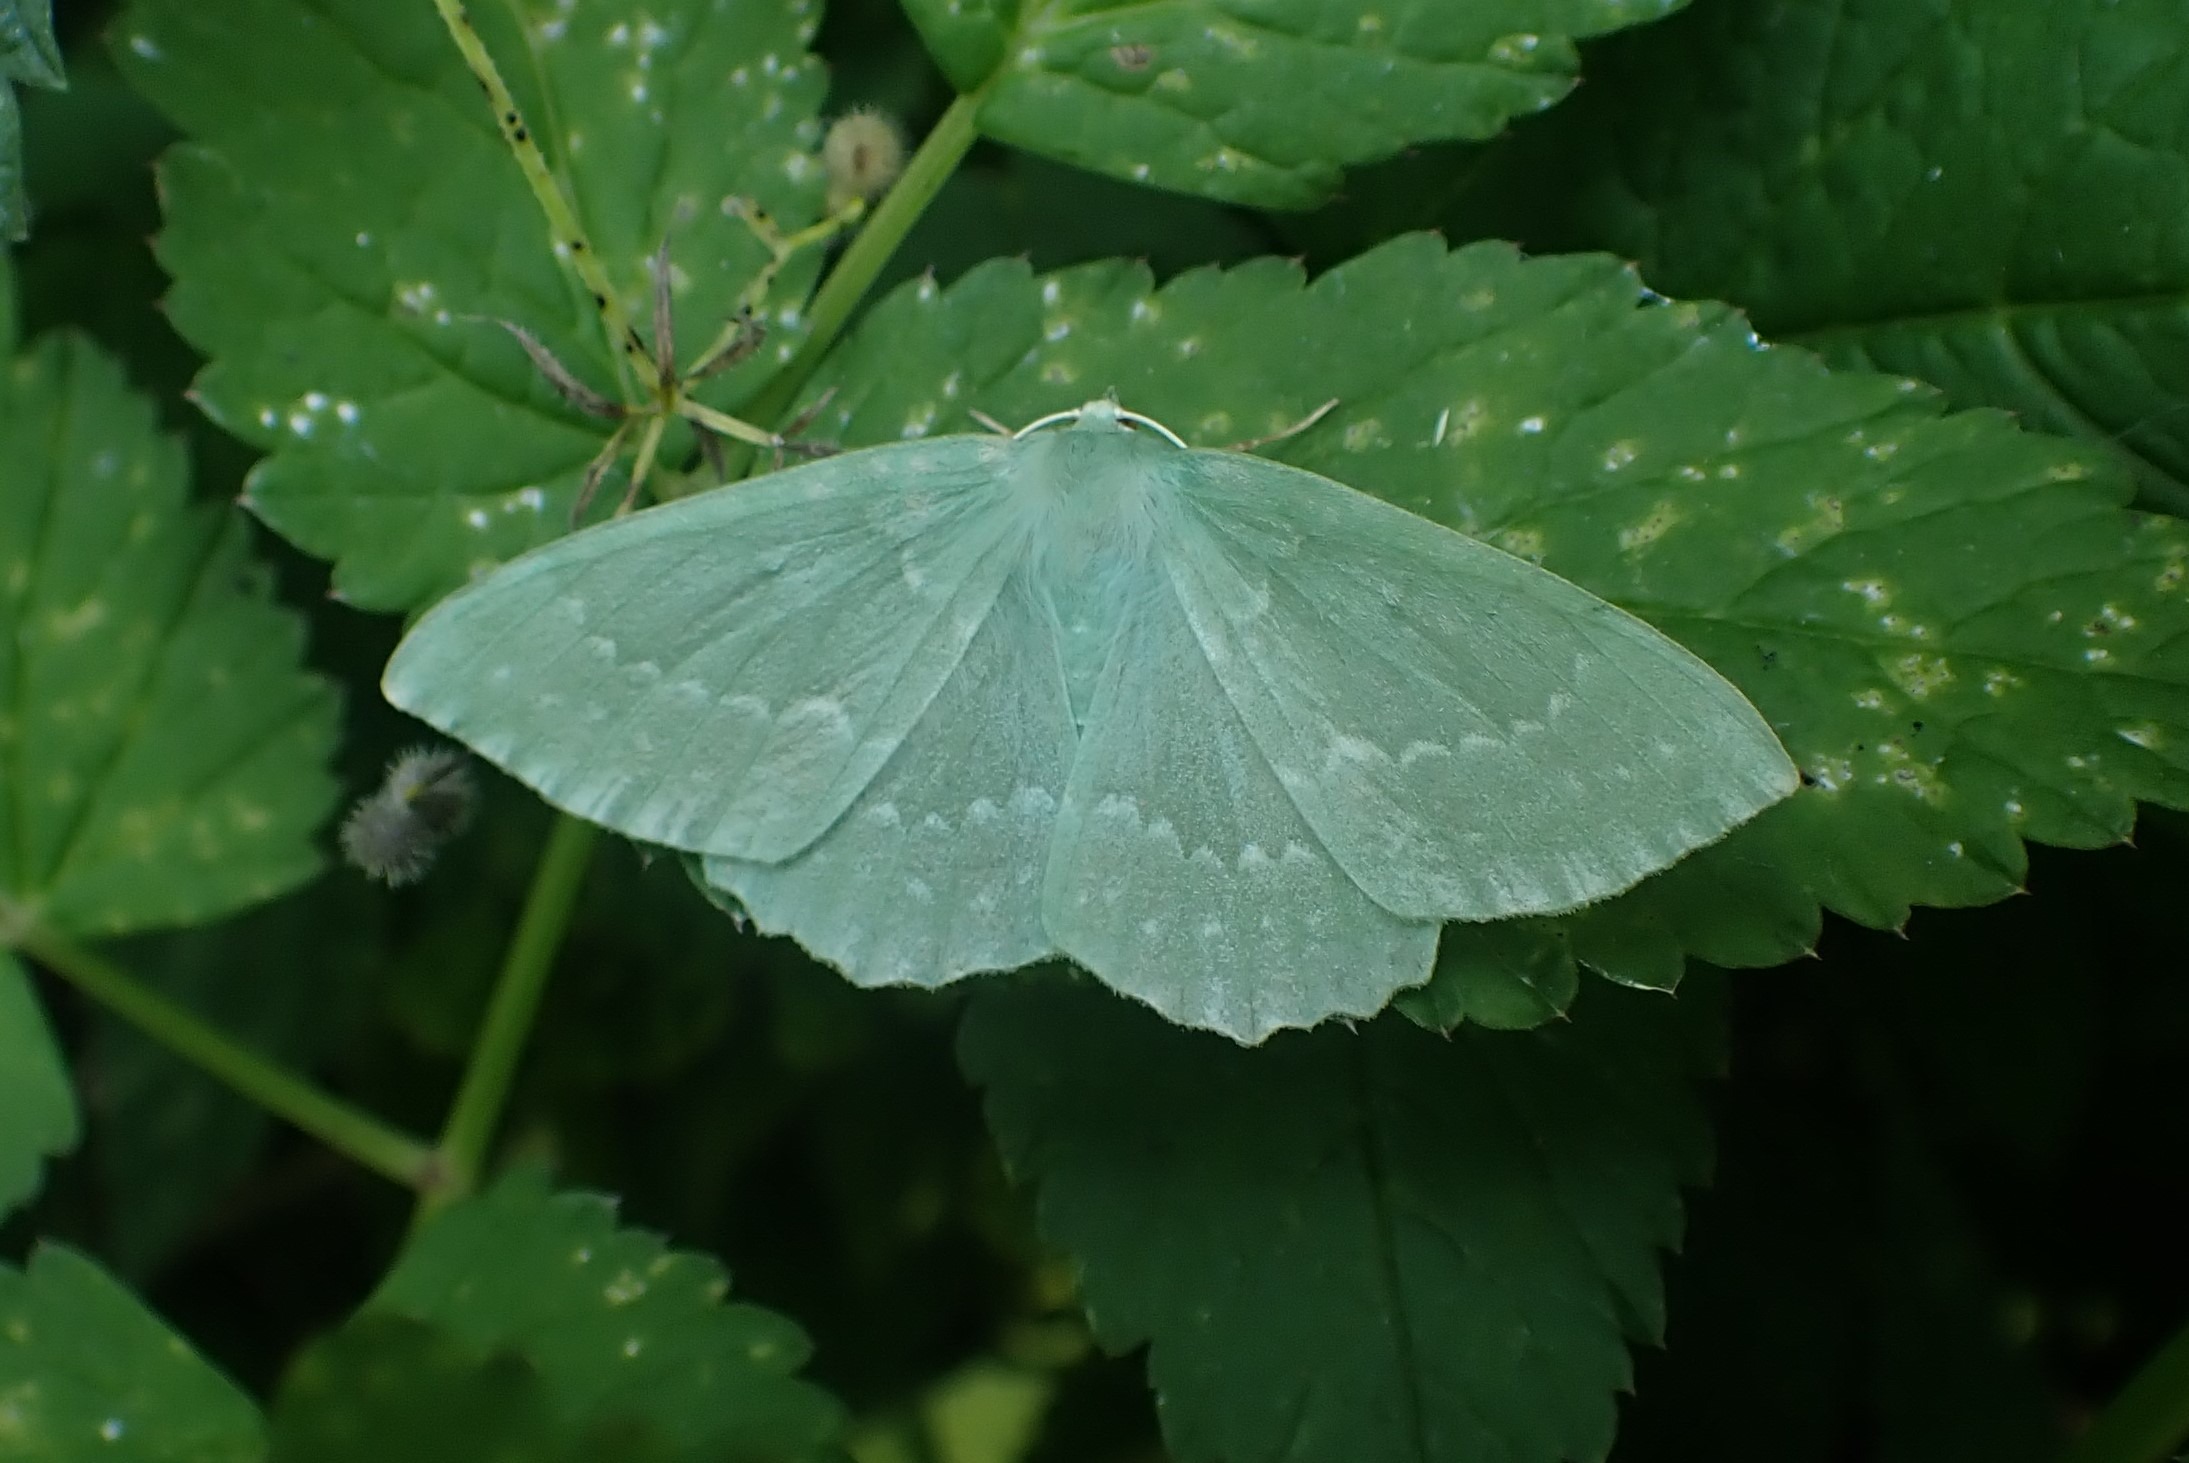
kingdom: Animalia
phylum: Arthropoda
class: Insecta
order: Lepidoptera
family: Geometridae
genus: Geometra
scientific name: Geometra papilionaria
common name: Grøn birkemåler
